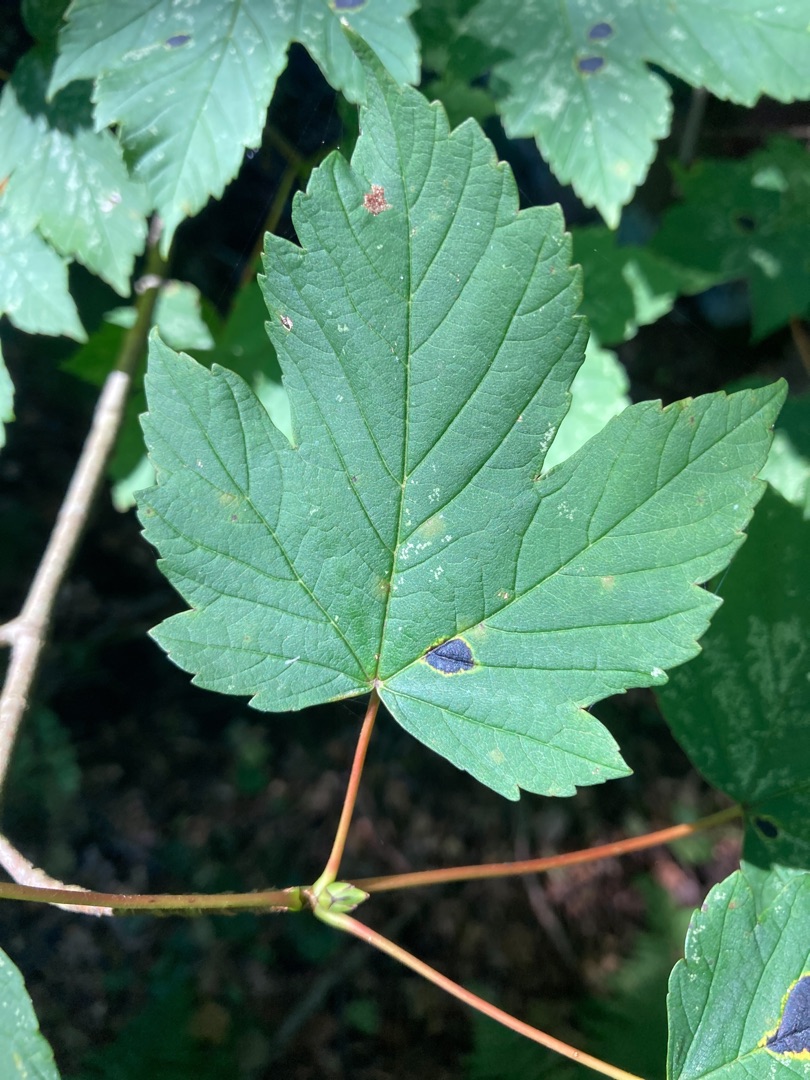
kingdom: Plantae
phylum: Tracheophyta
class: Magnoliopsida
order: Sapindales
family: Sapindaceae
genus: Acer
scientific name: Acer pseudoplatanus
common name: Ahorn
